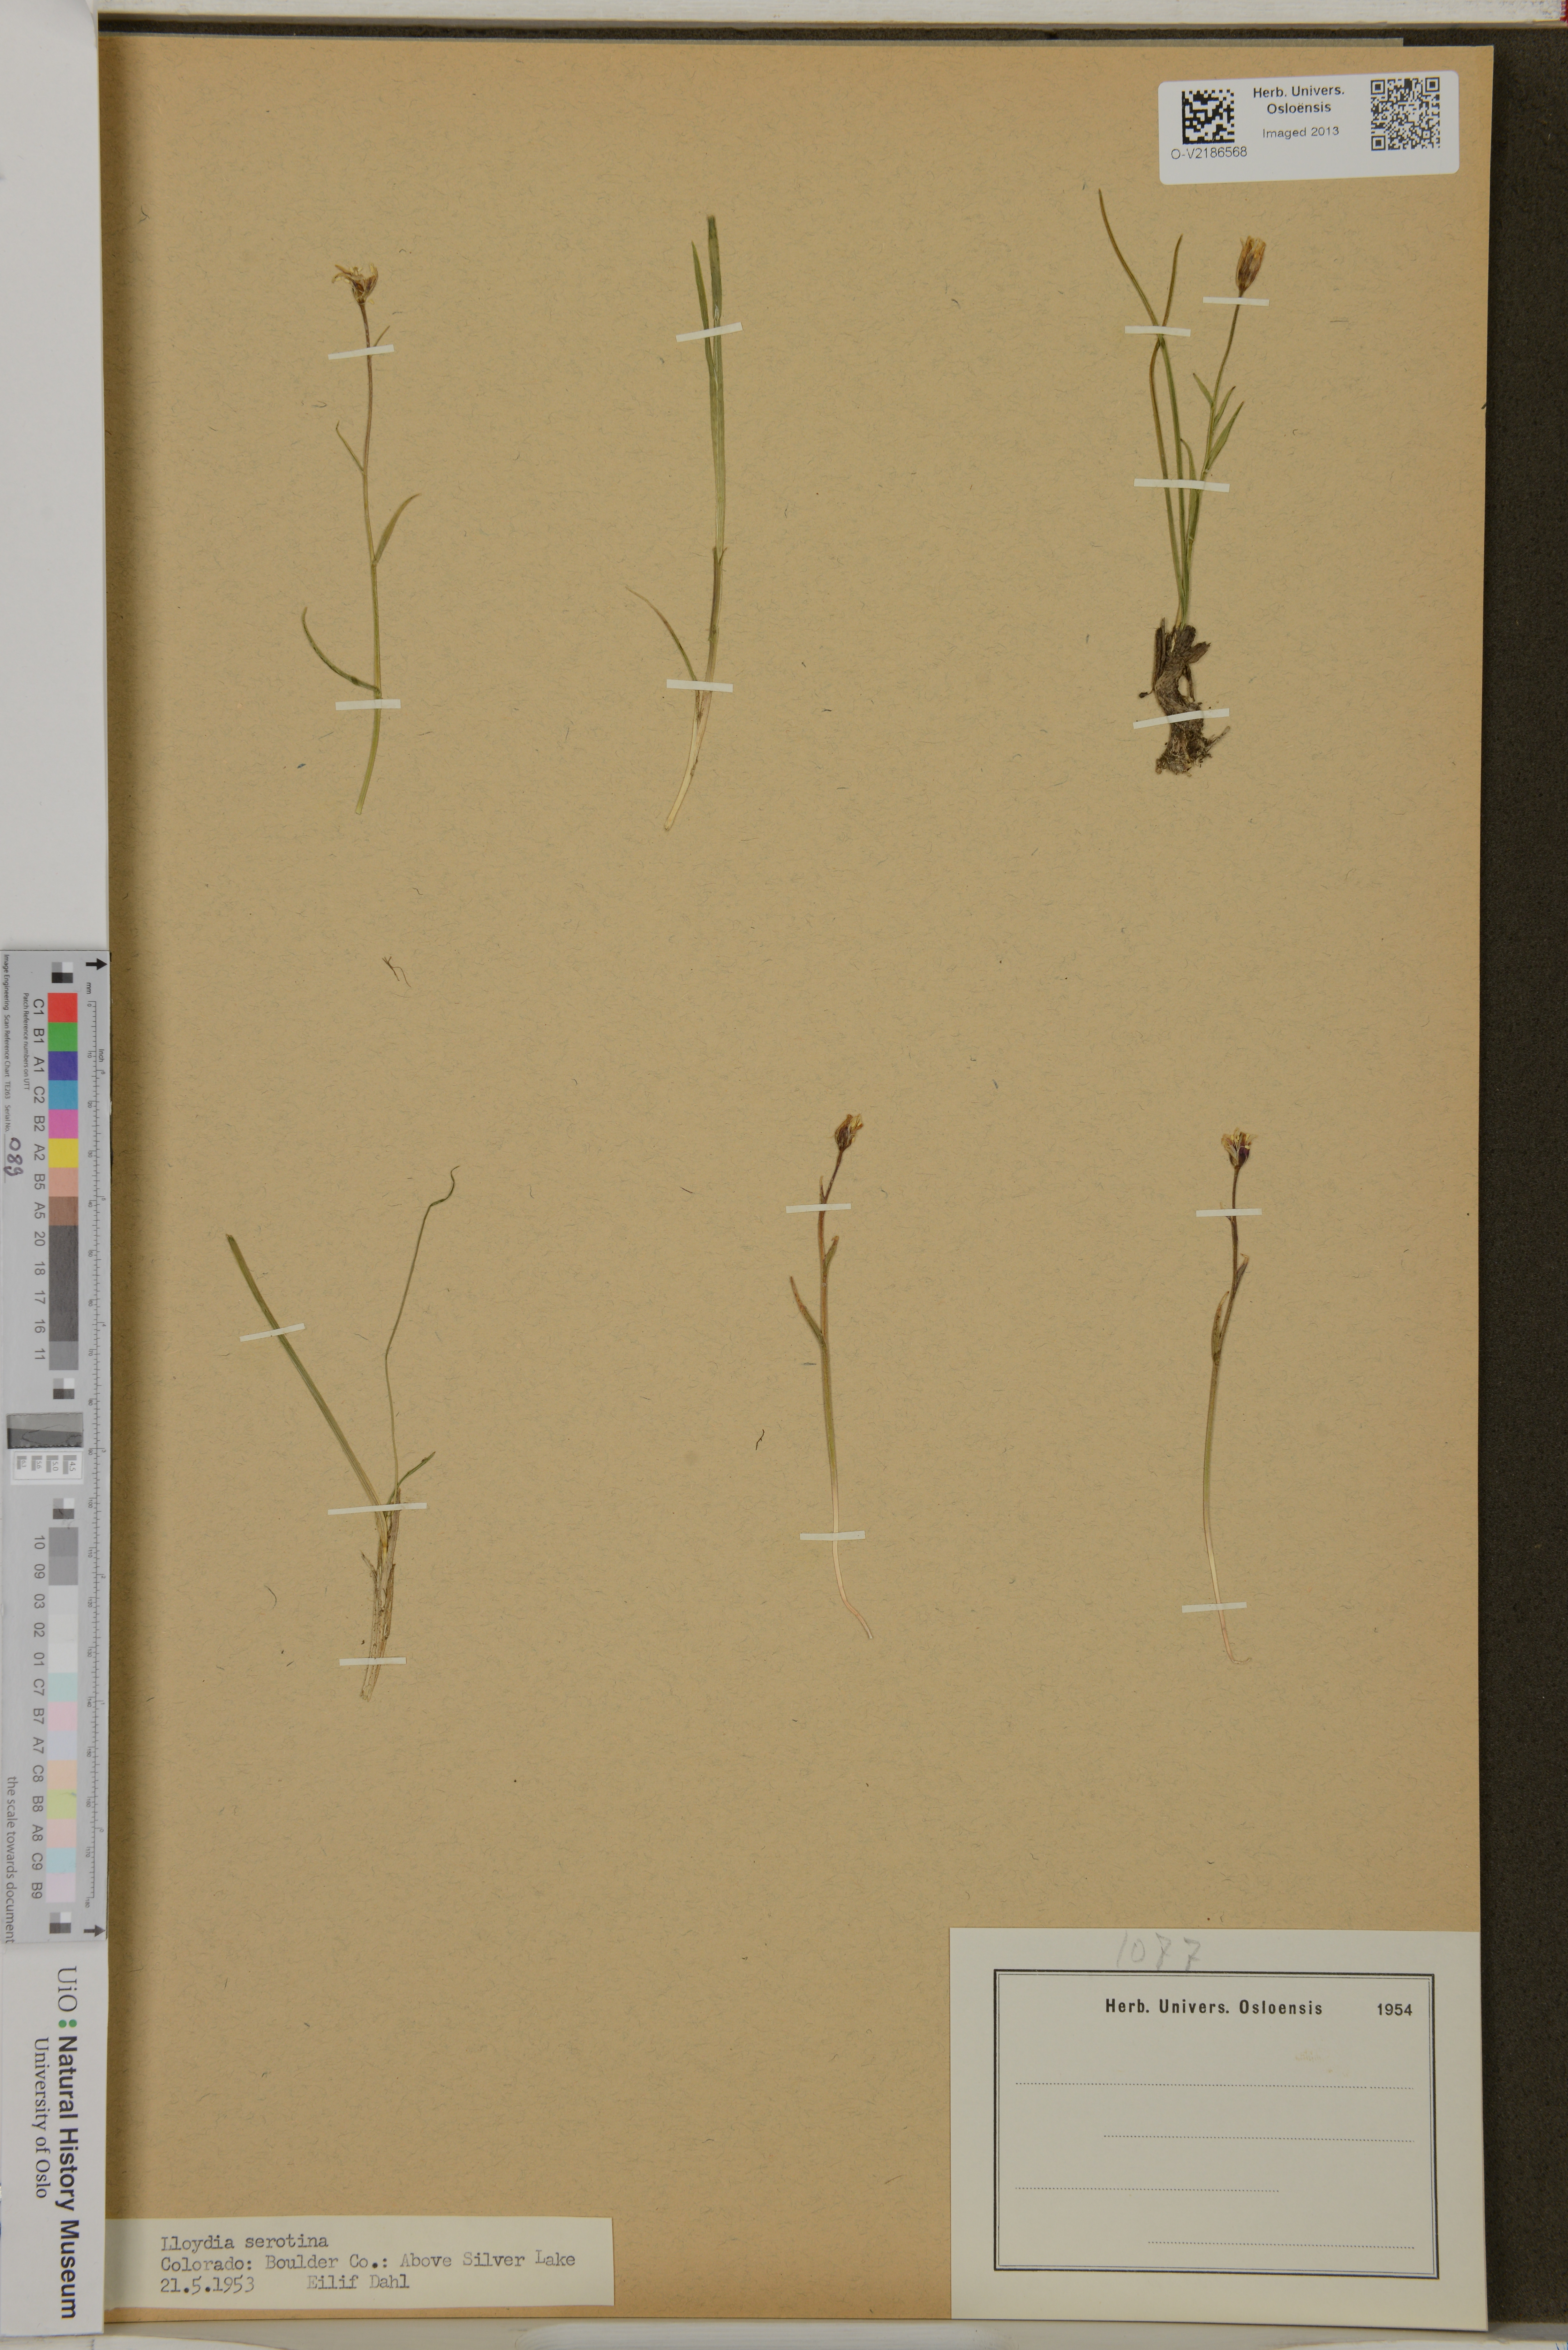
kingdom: Plantae
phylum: Tracheophyta
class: Liliopsida
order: Liliales
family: Liliaceae
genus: Gagea
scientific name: Gagea serotina
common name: Snowdon lily
